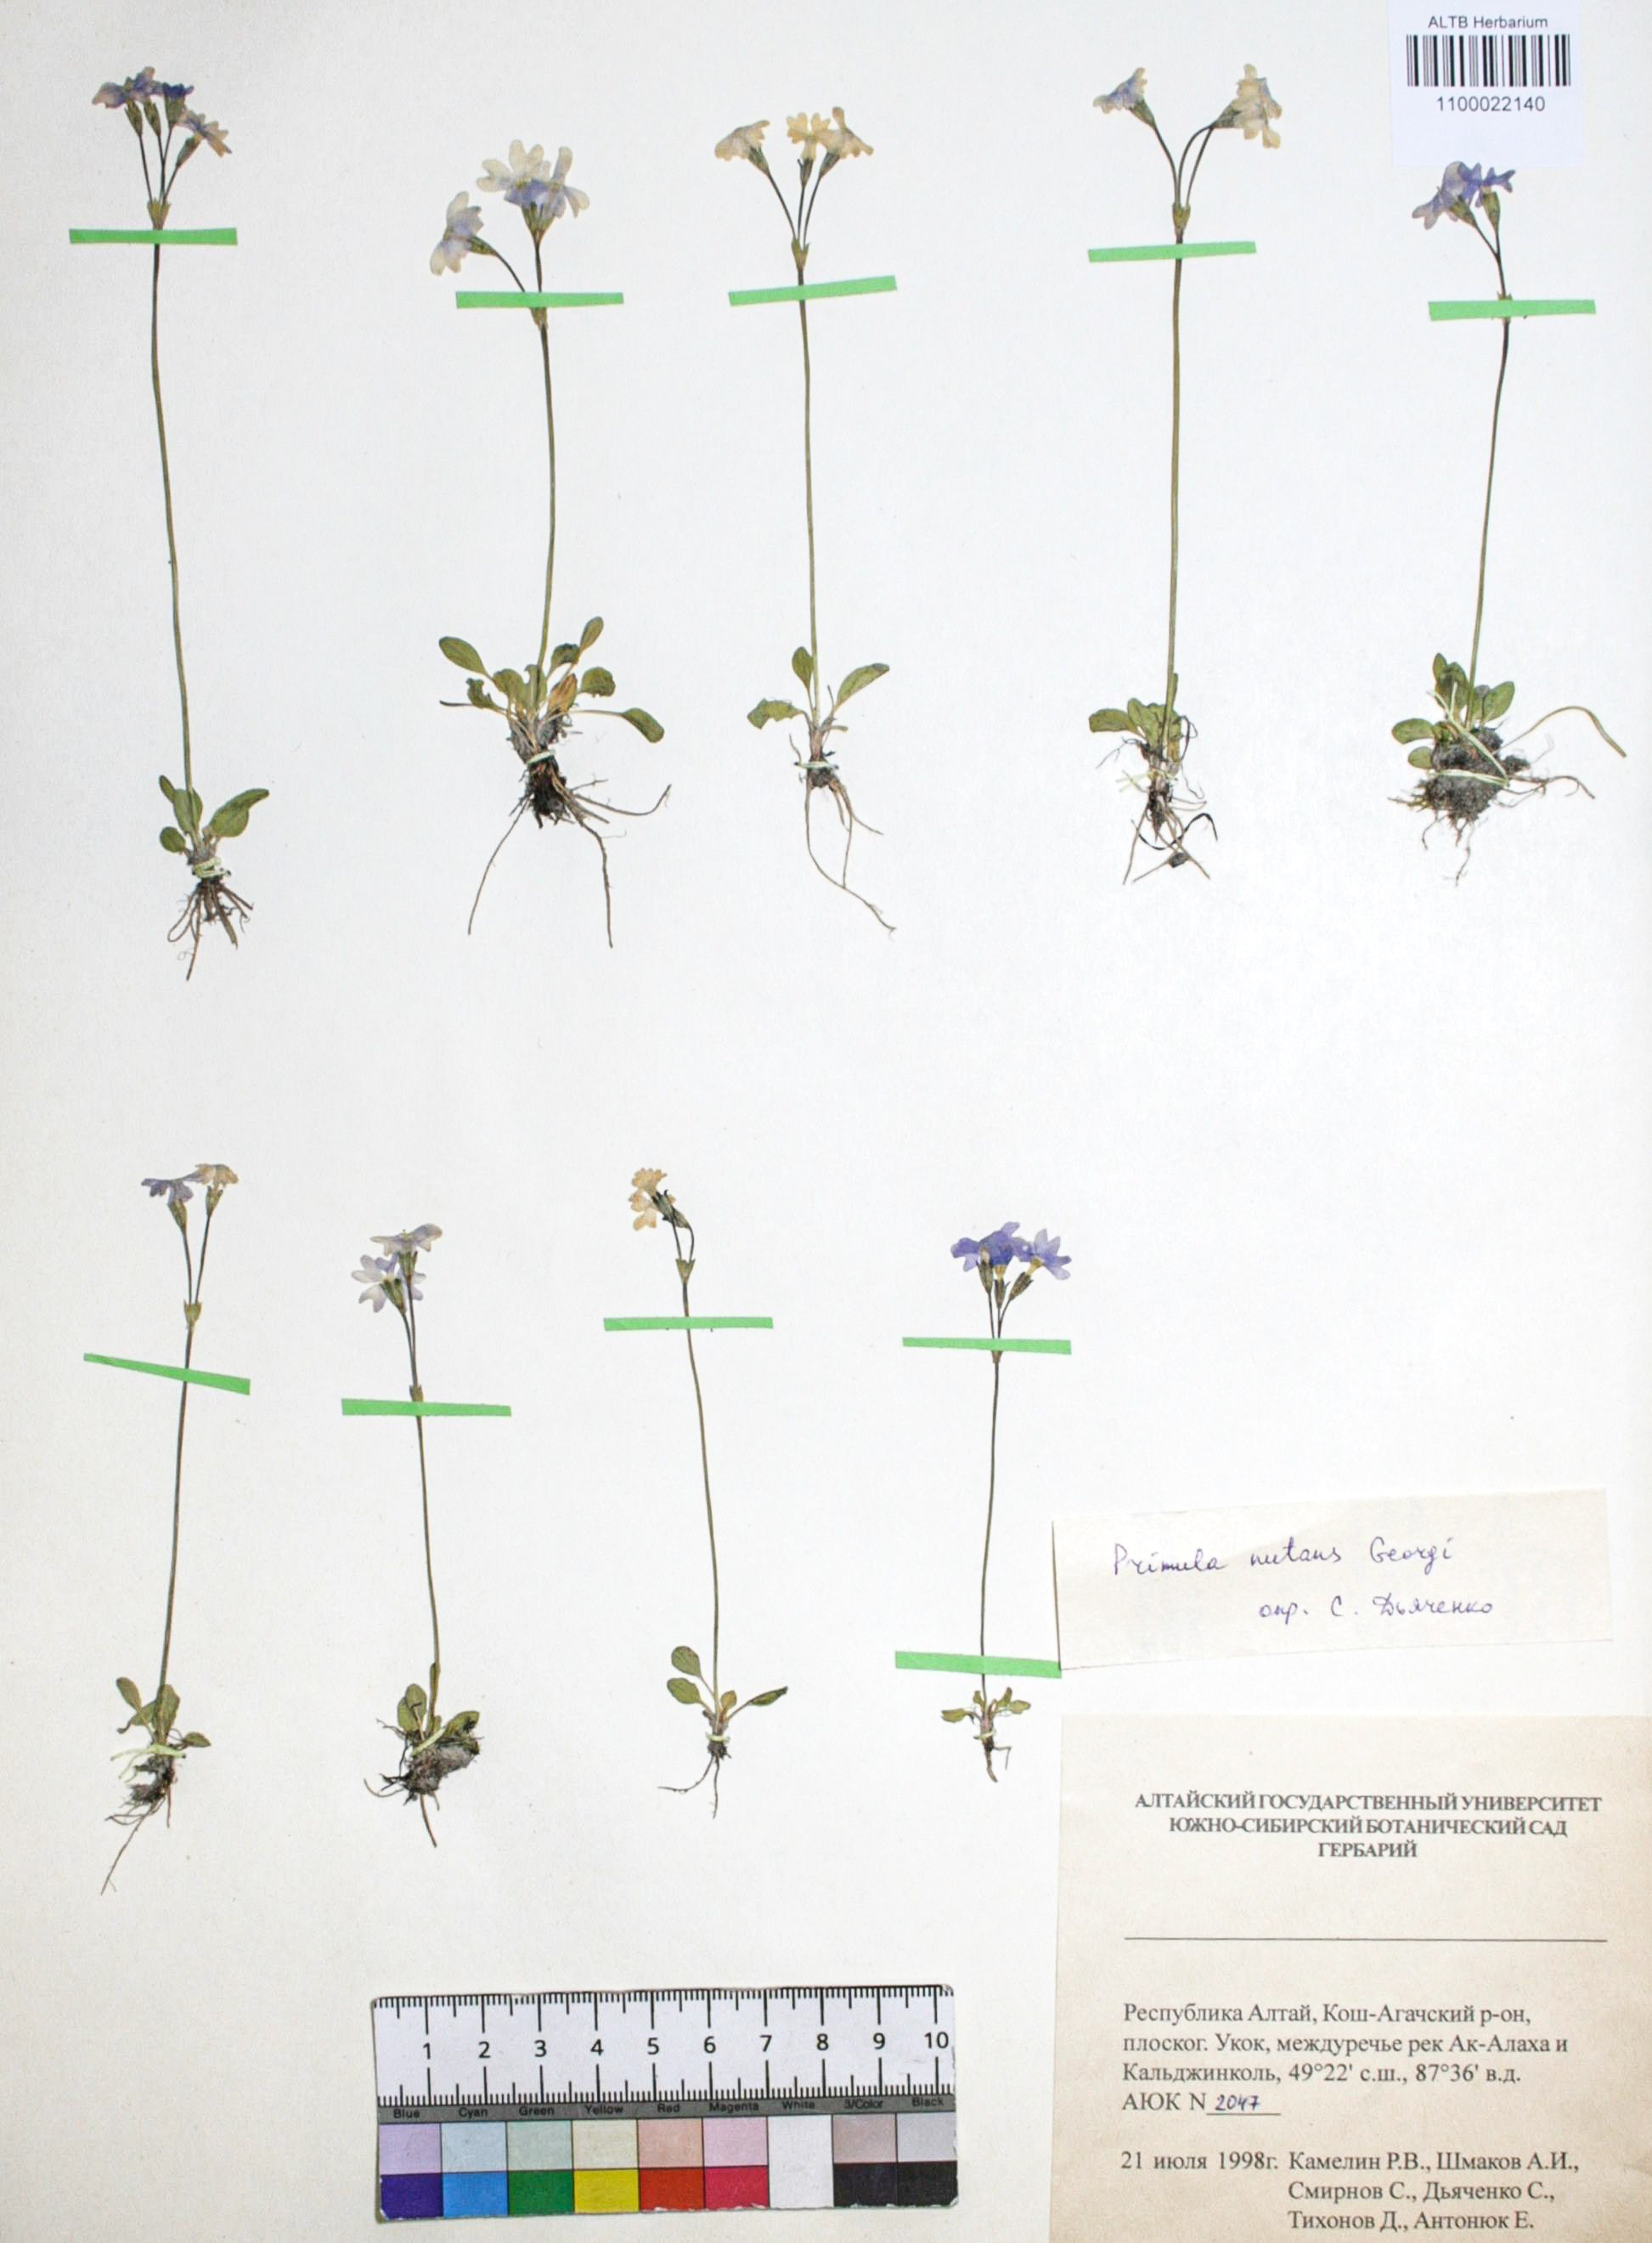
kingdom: Plantae
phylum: Tracheophyta
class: Magnoliopsida
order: Ericales
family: Primulaceae
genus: Primula
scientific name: Primula nutans
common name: Siberian primrose
